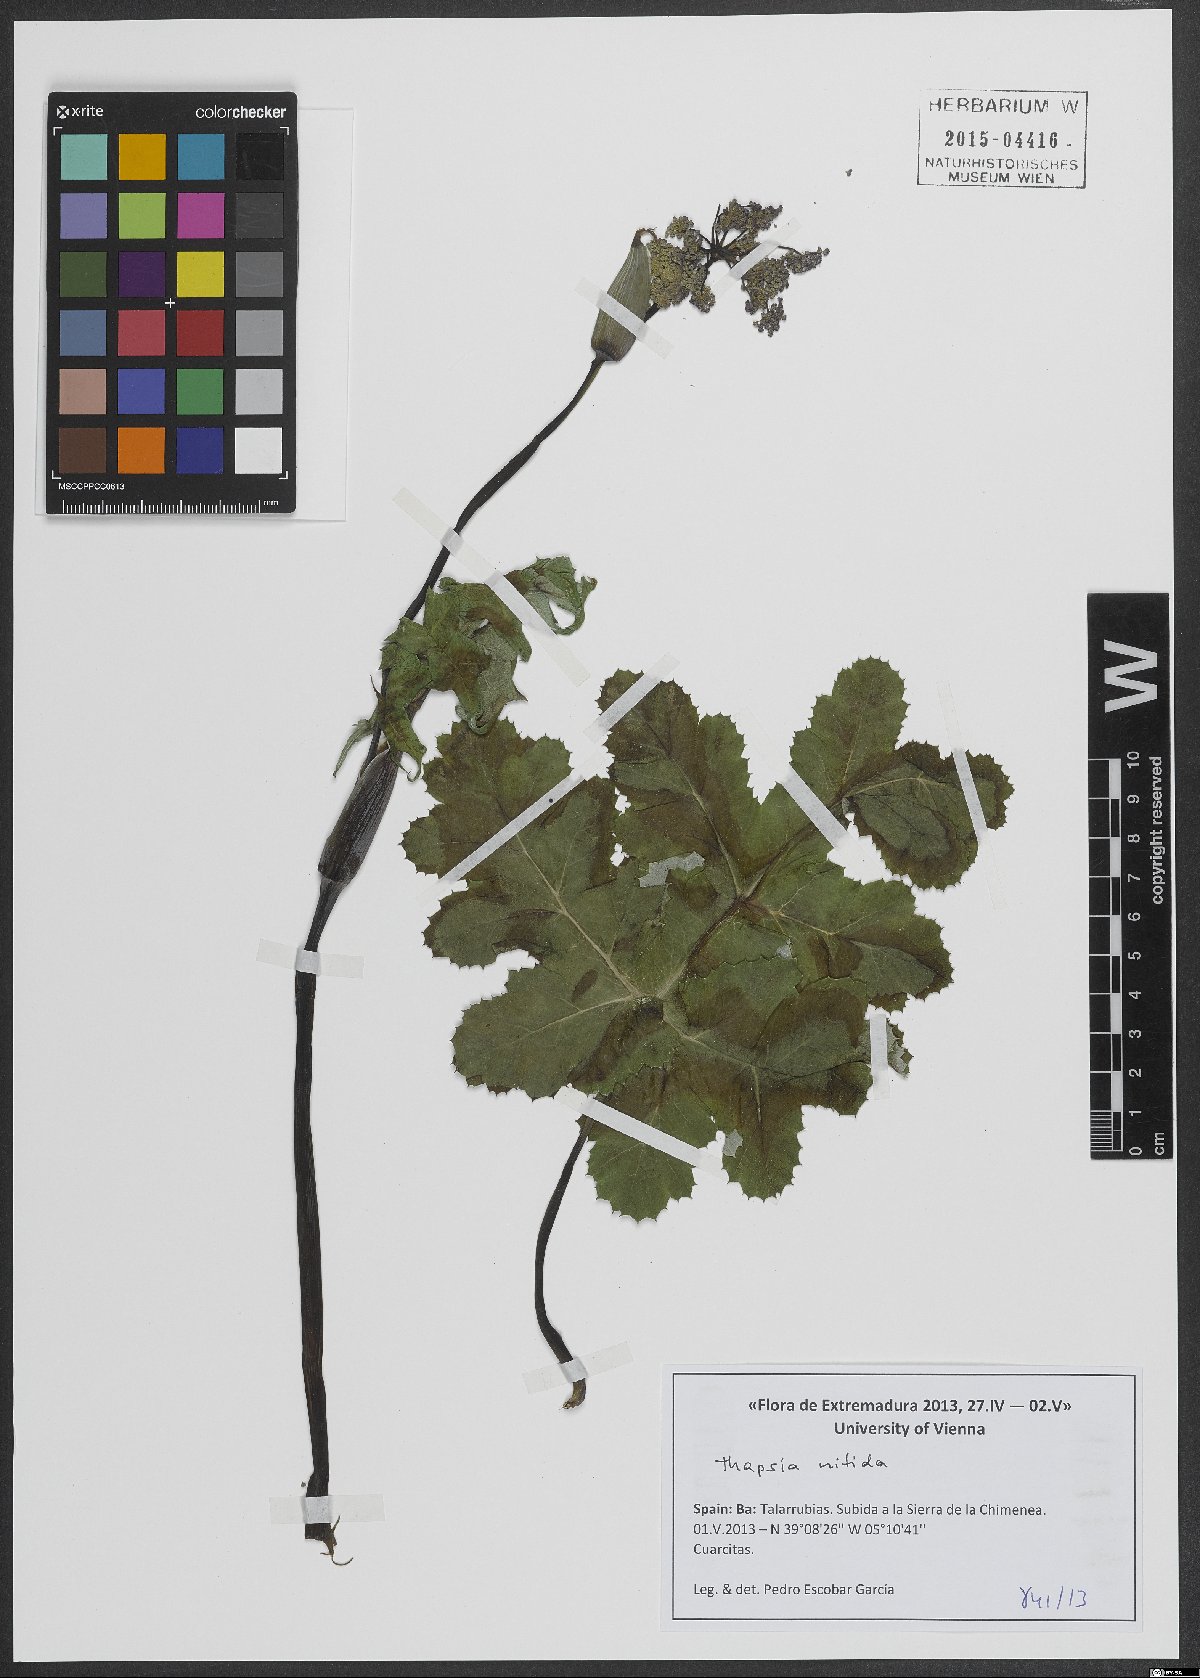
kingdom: Plantae
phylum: Tracheophyta
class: Magnoliopsida
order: Apiales
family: Apiaceae
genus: Thapsia
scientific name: Thapsia nitida
